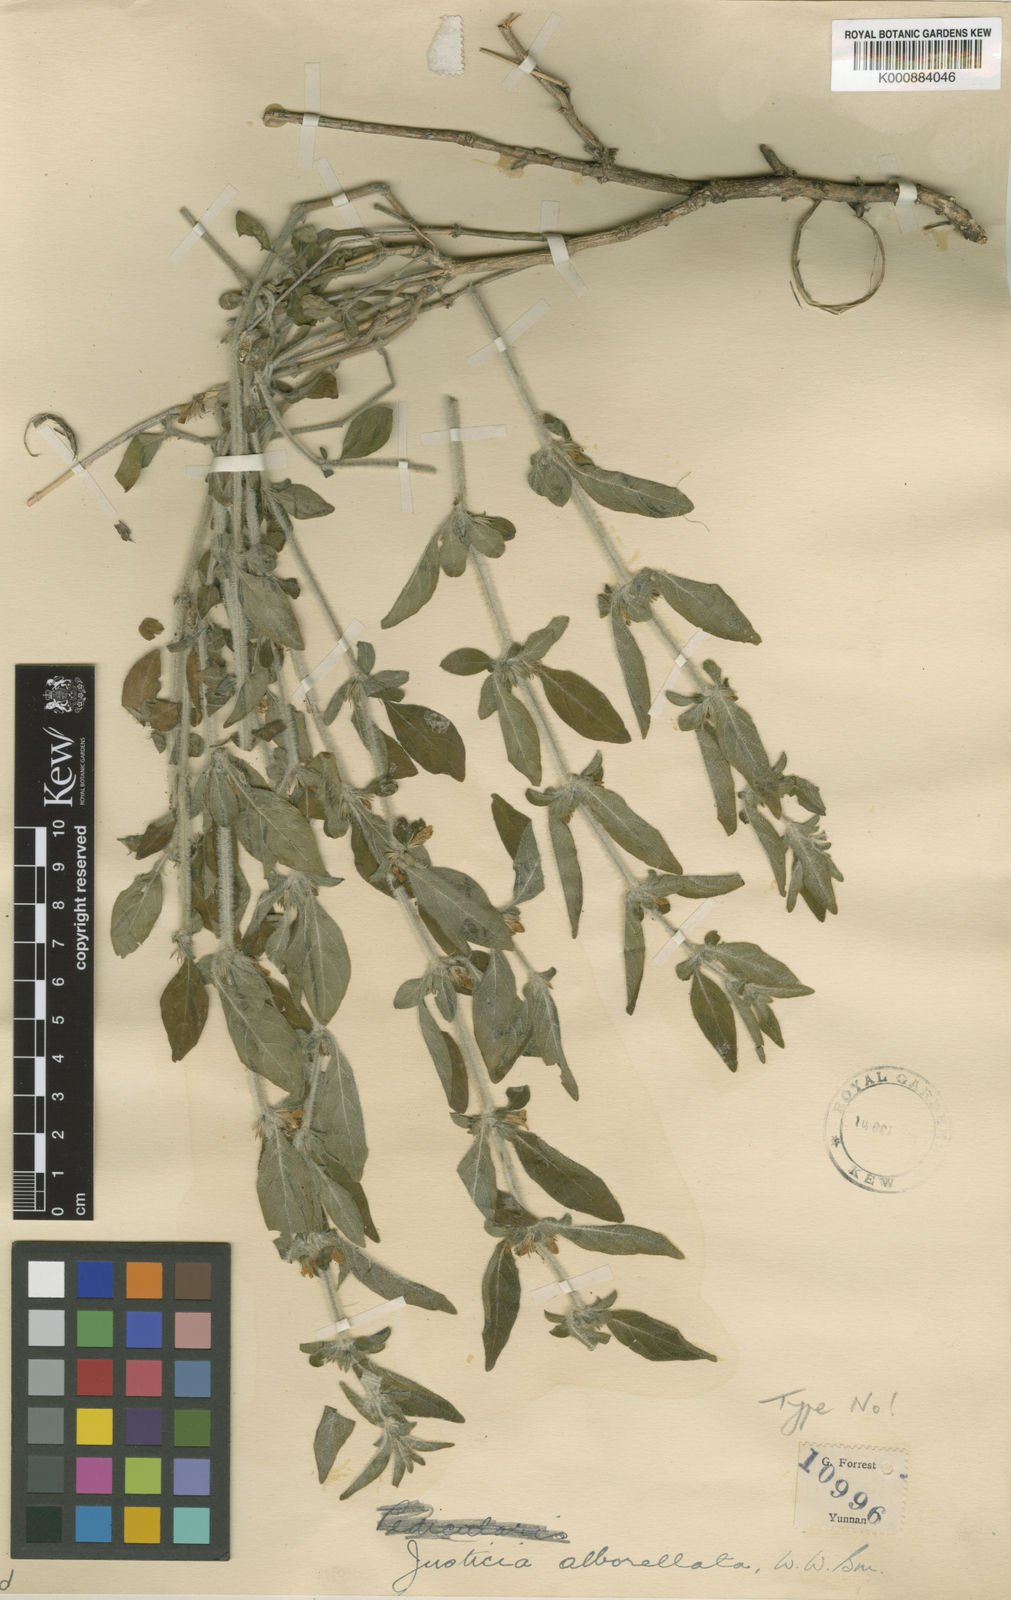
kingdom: Plantae
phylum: Tracheophyta
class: Magnoliopsida
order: Lamiales
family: Acanthaceae
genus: Justicia
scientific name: Justicia albovelata
